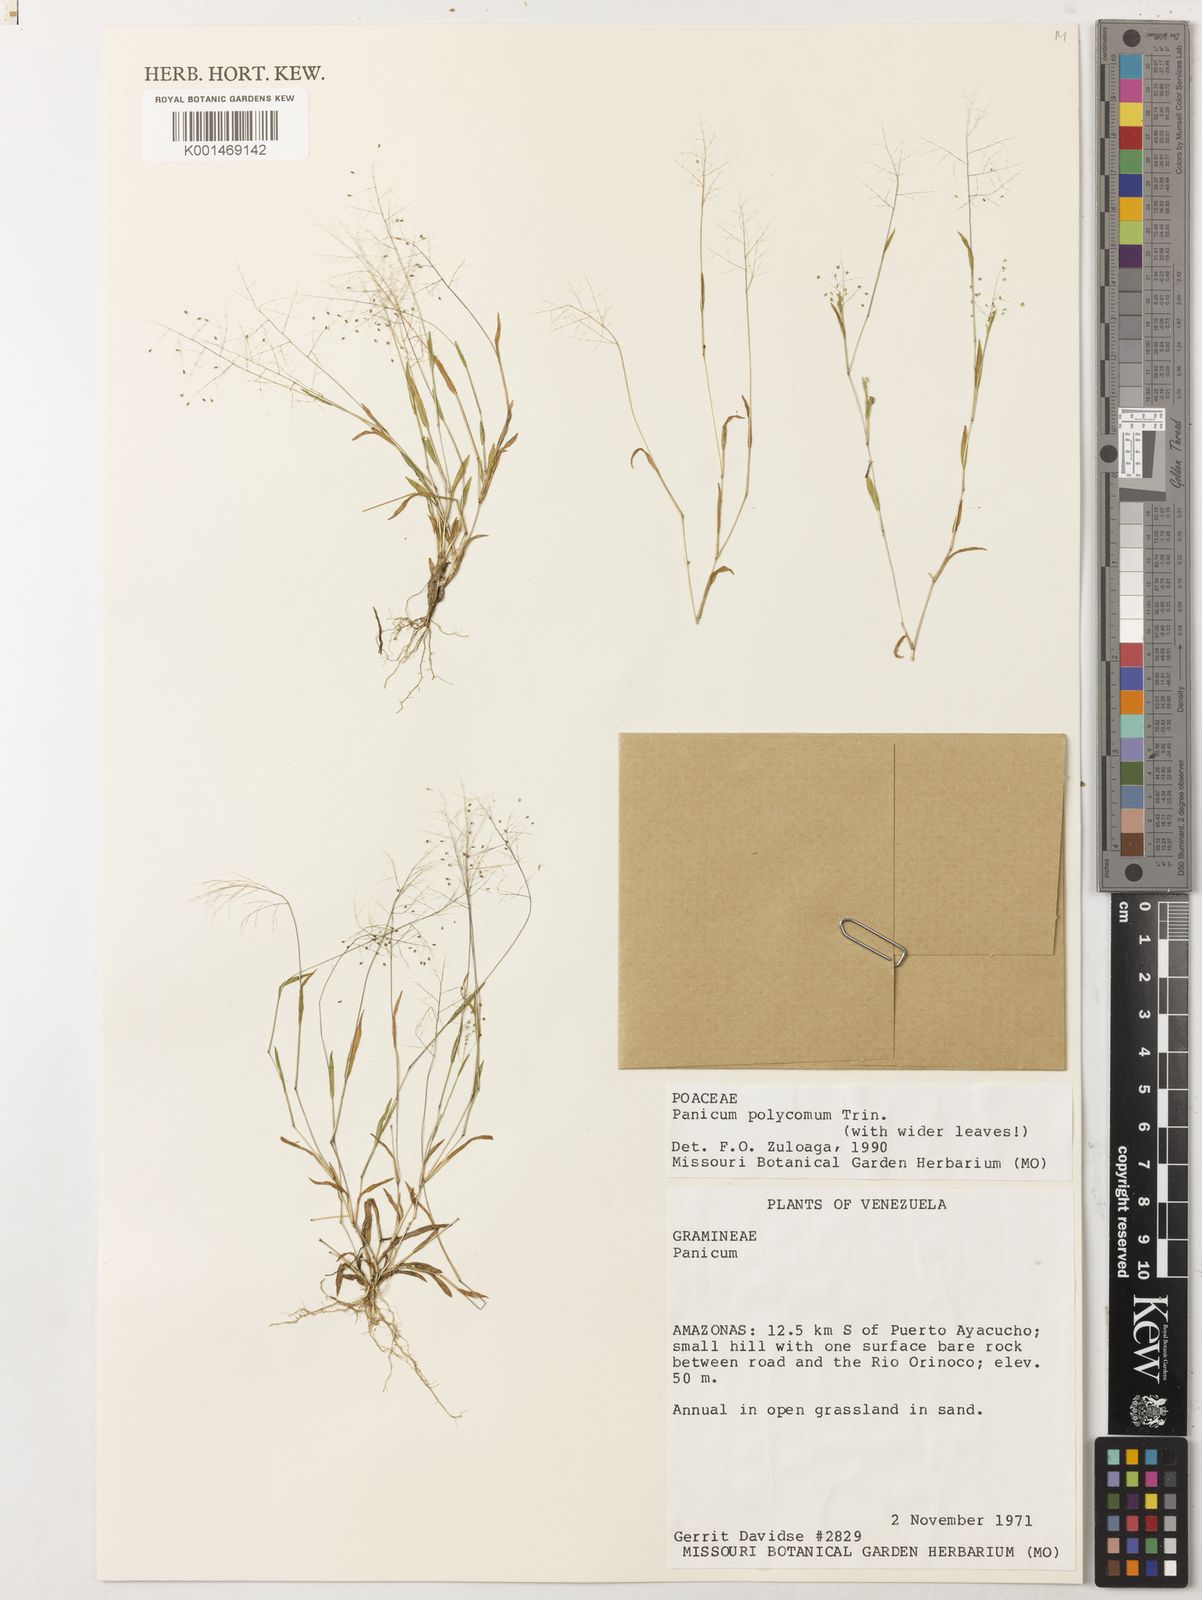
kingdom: Plantae
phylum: Tracheophyta
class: Liliopsida
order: Poales
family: Poaceae
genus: Trichanthecium
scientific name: Trichanthecium polycomum
